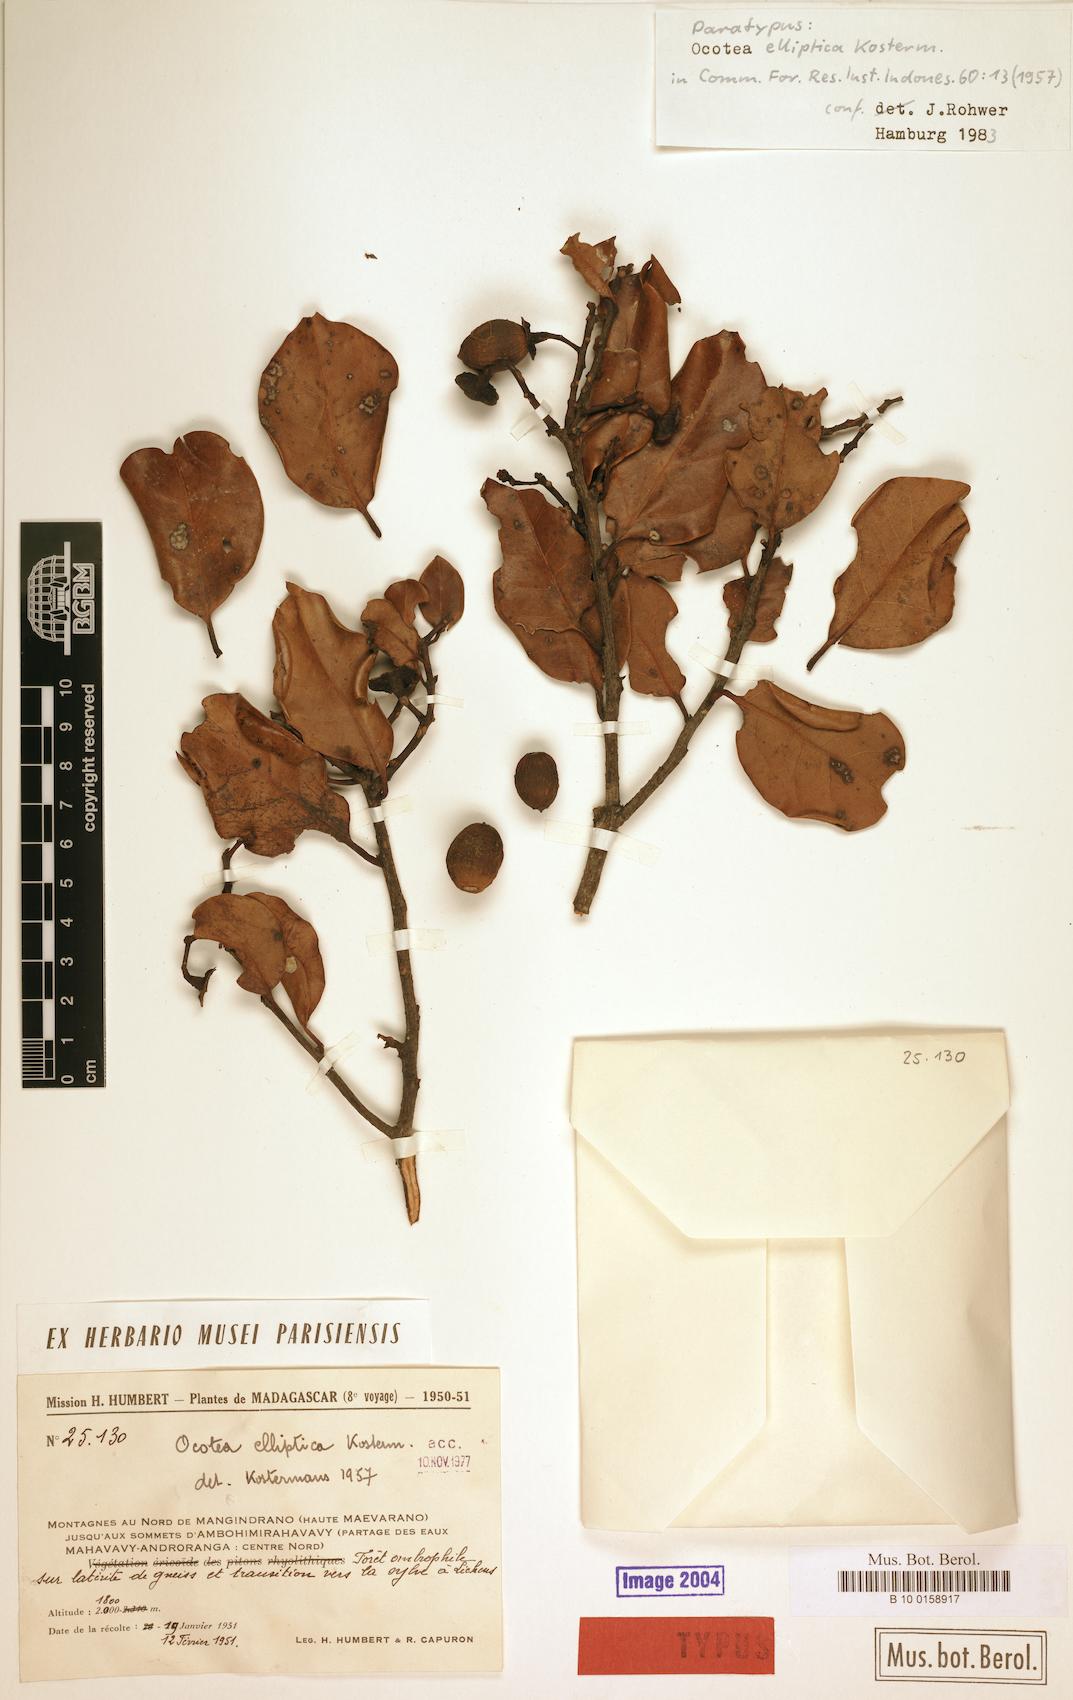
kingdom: Plantae
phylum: Tracheophyta
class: Magnoliopsida
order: Laurales
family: Lauraceae
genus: Ocotea
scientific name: Ocotea elliptica
